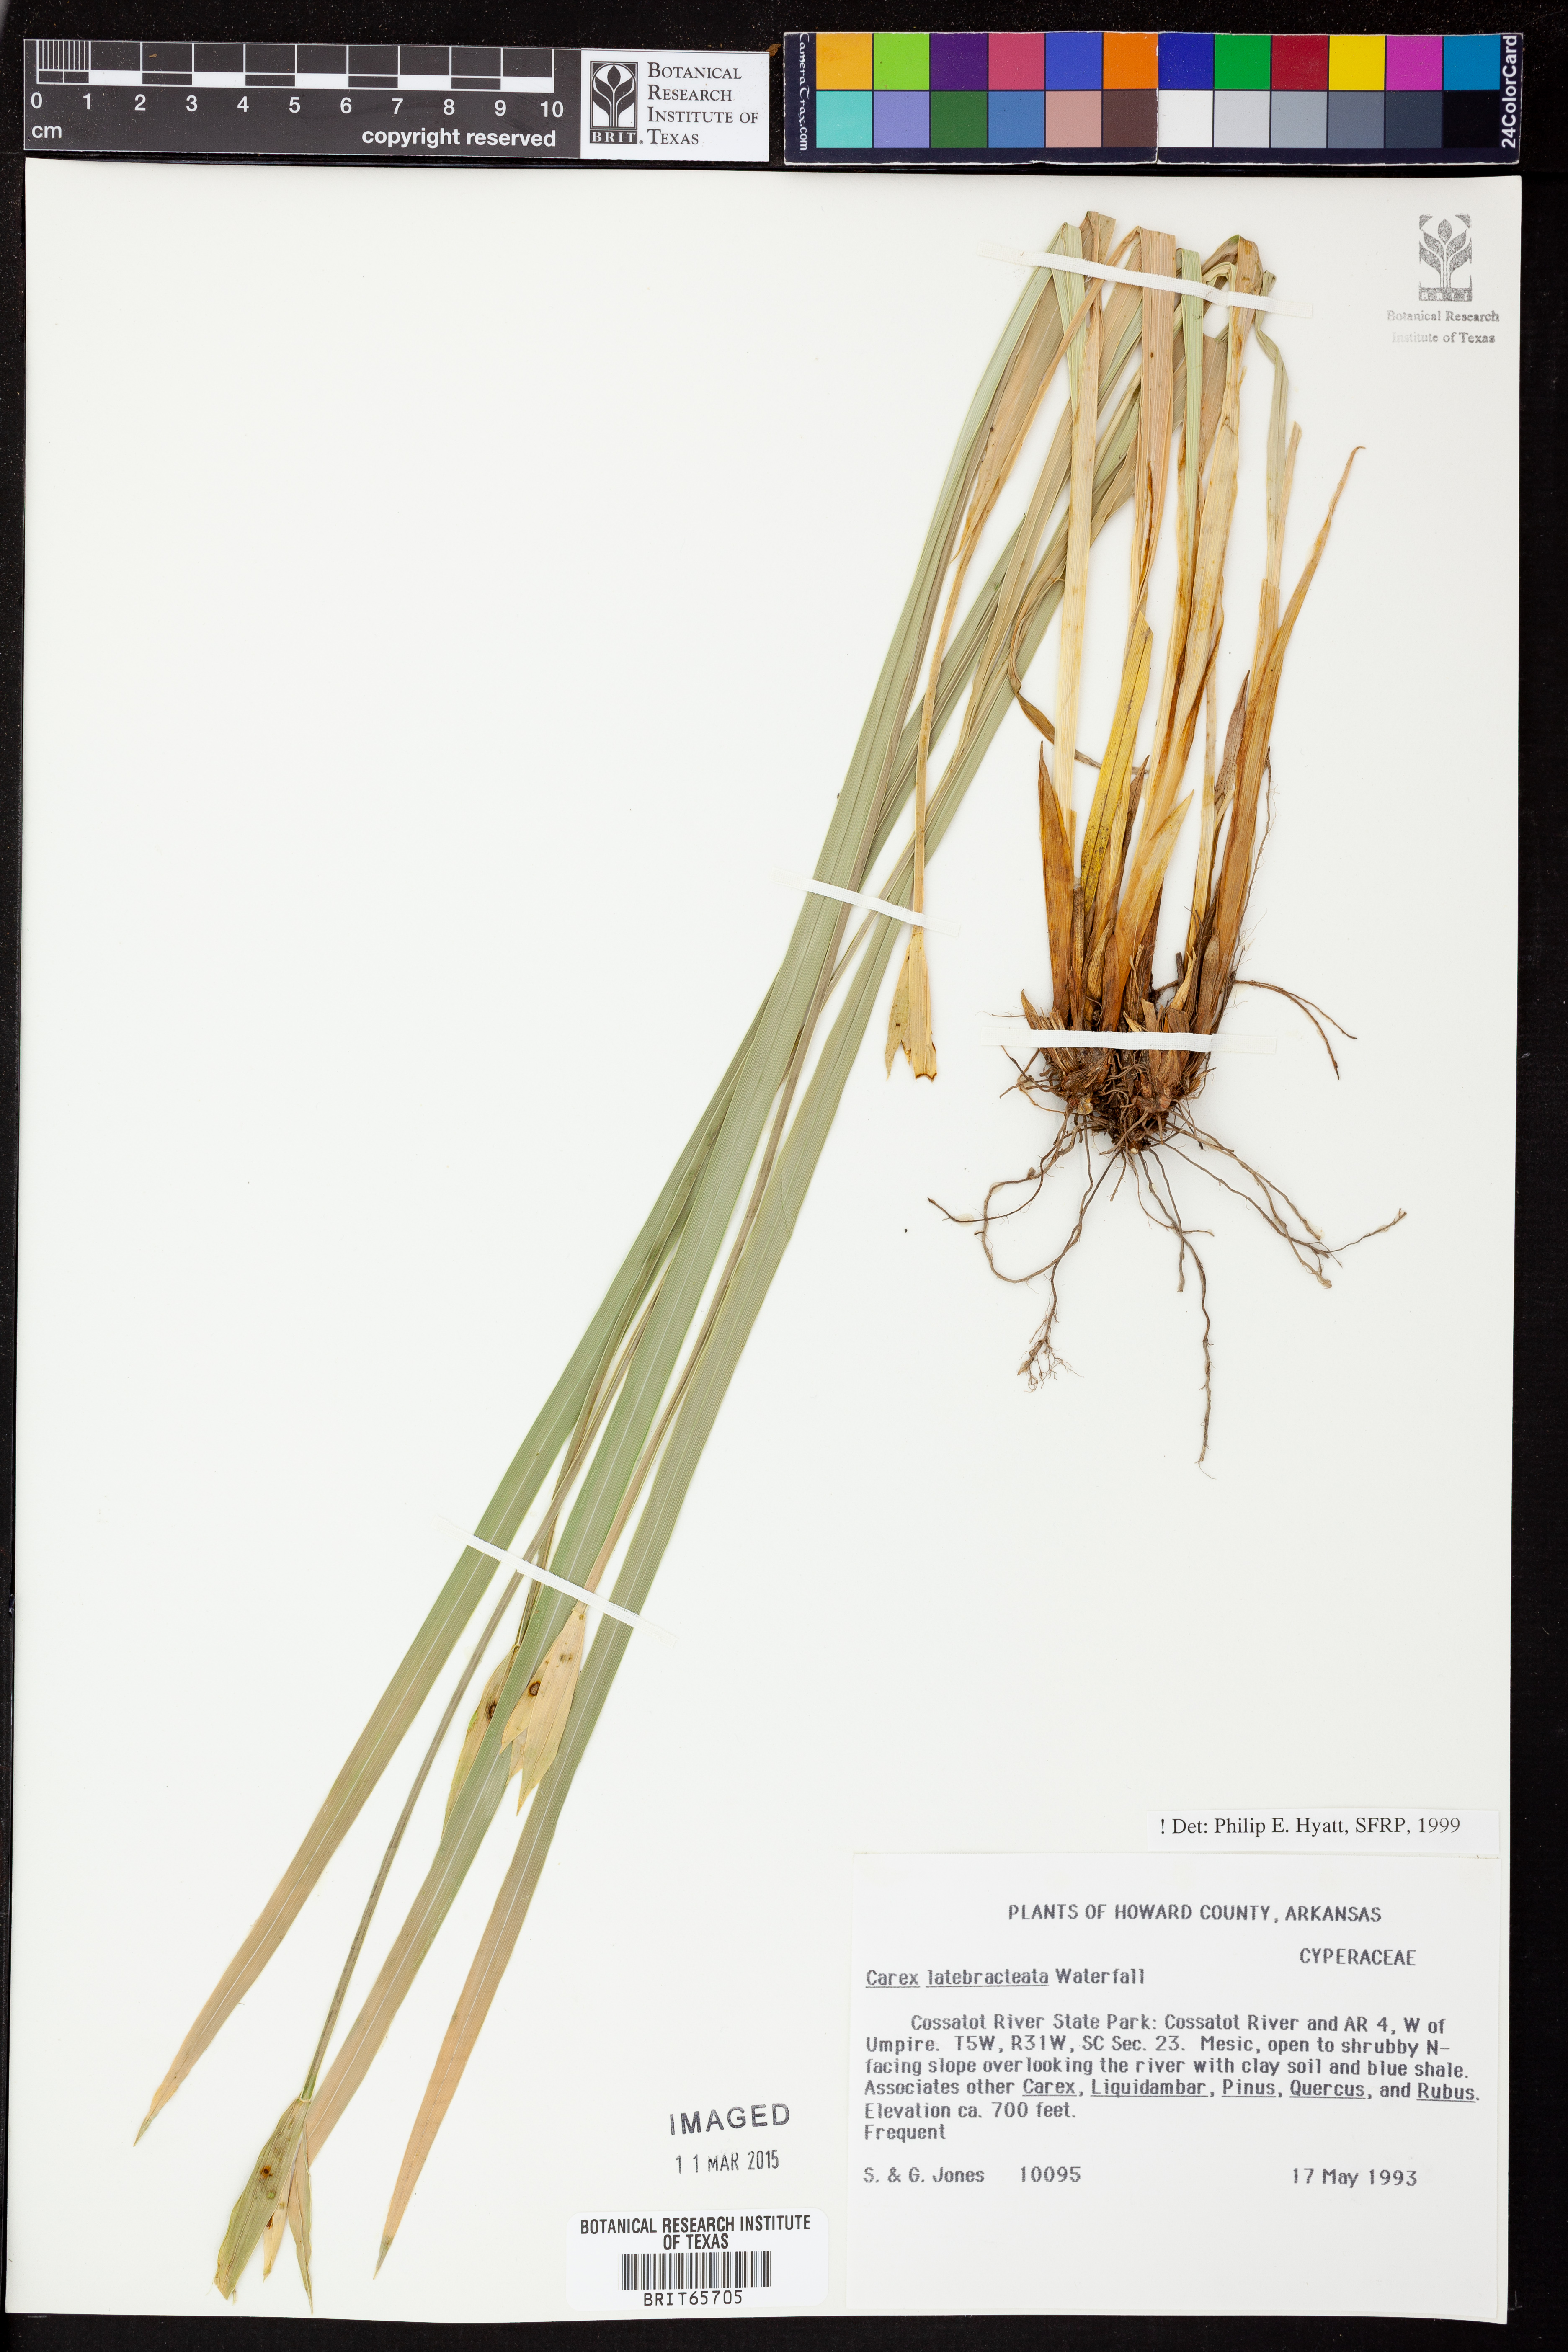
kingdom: Plantae
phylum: Tracheophyta
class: Liliopsida
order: Poales
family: Cyperaceae
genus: Carex
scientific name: Carex latebracteata
